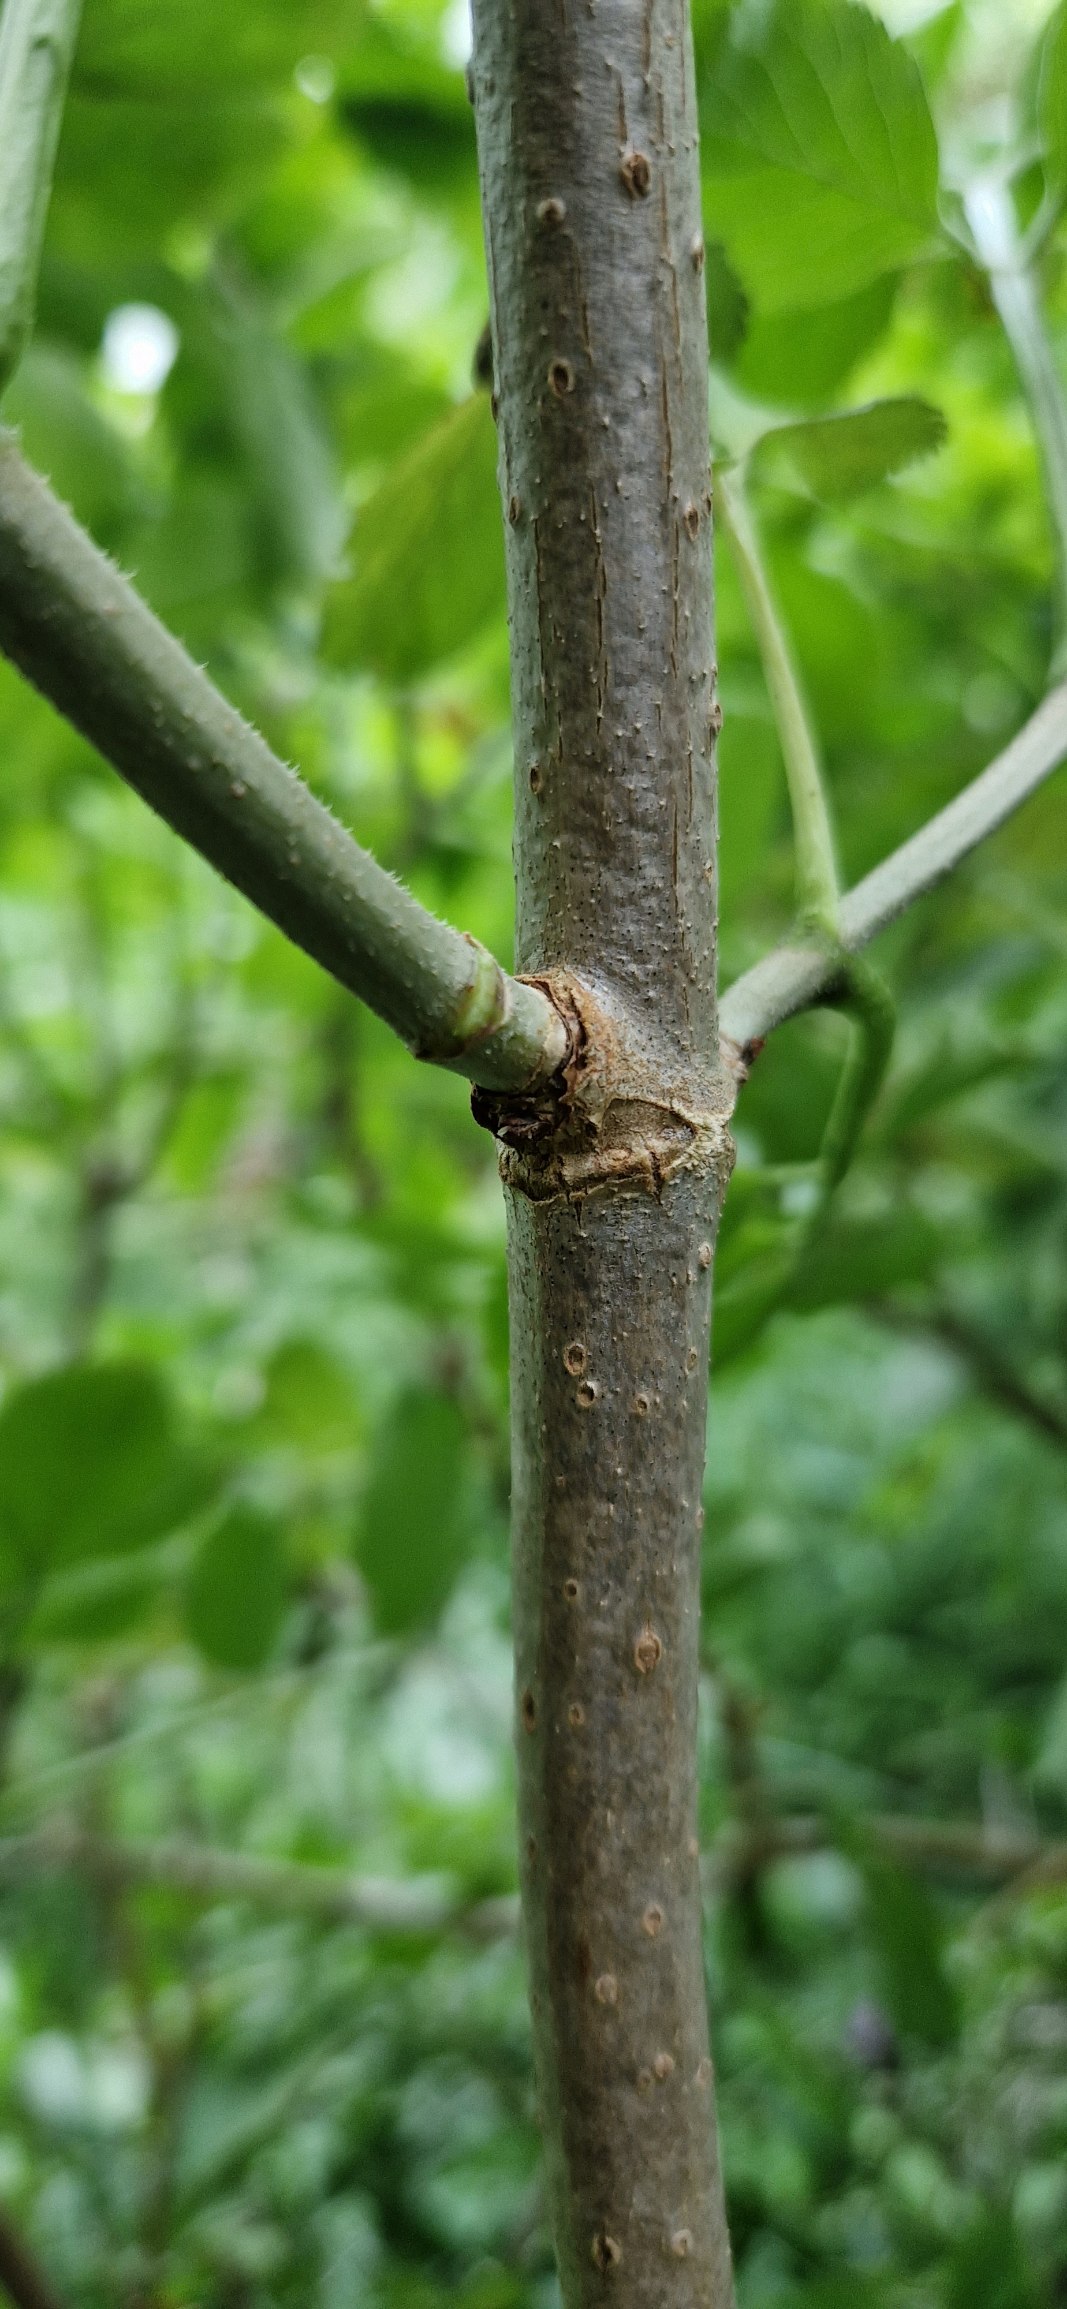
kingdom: Plantae
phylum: Tracheophyta
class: Magnoliopsida
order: Dipsacales
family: Viburnaceae
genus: Sambucus
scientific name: Sambucus nigra
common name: Almindelig hyld
